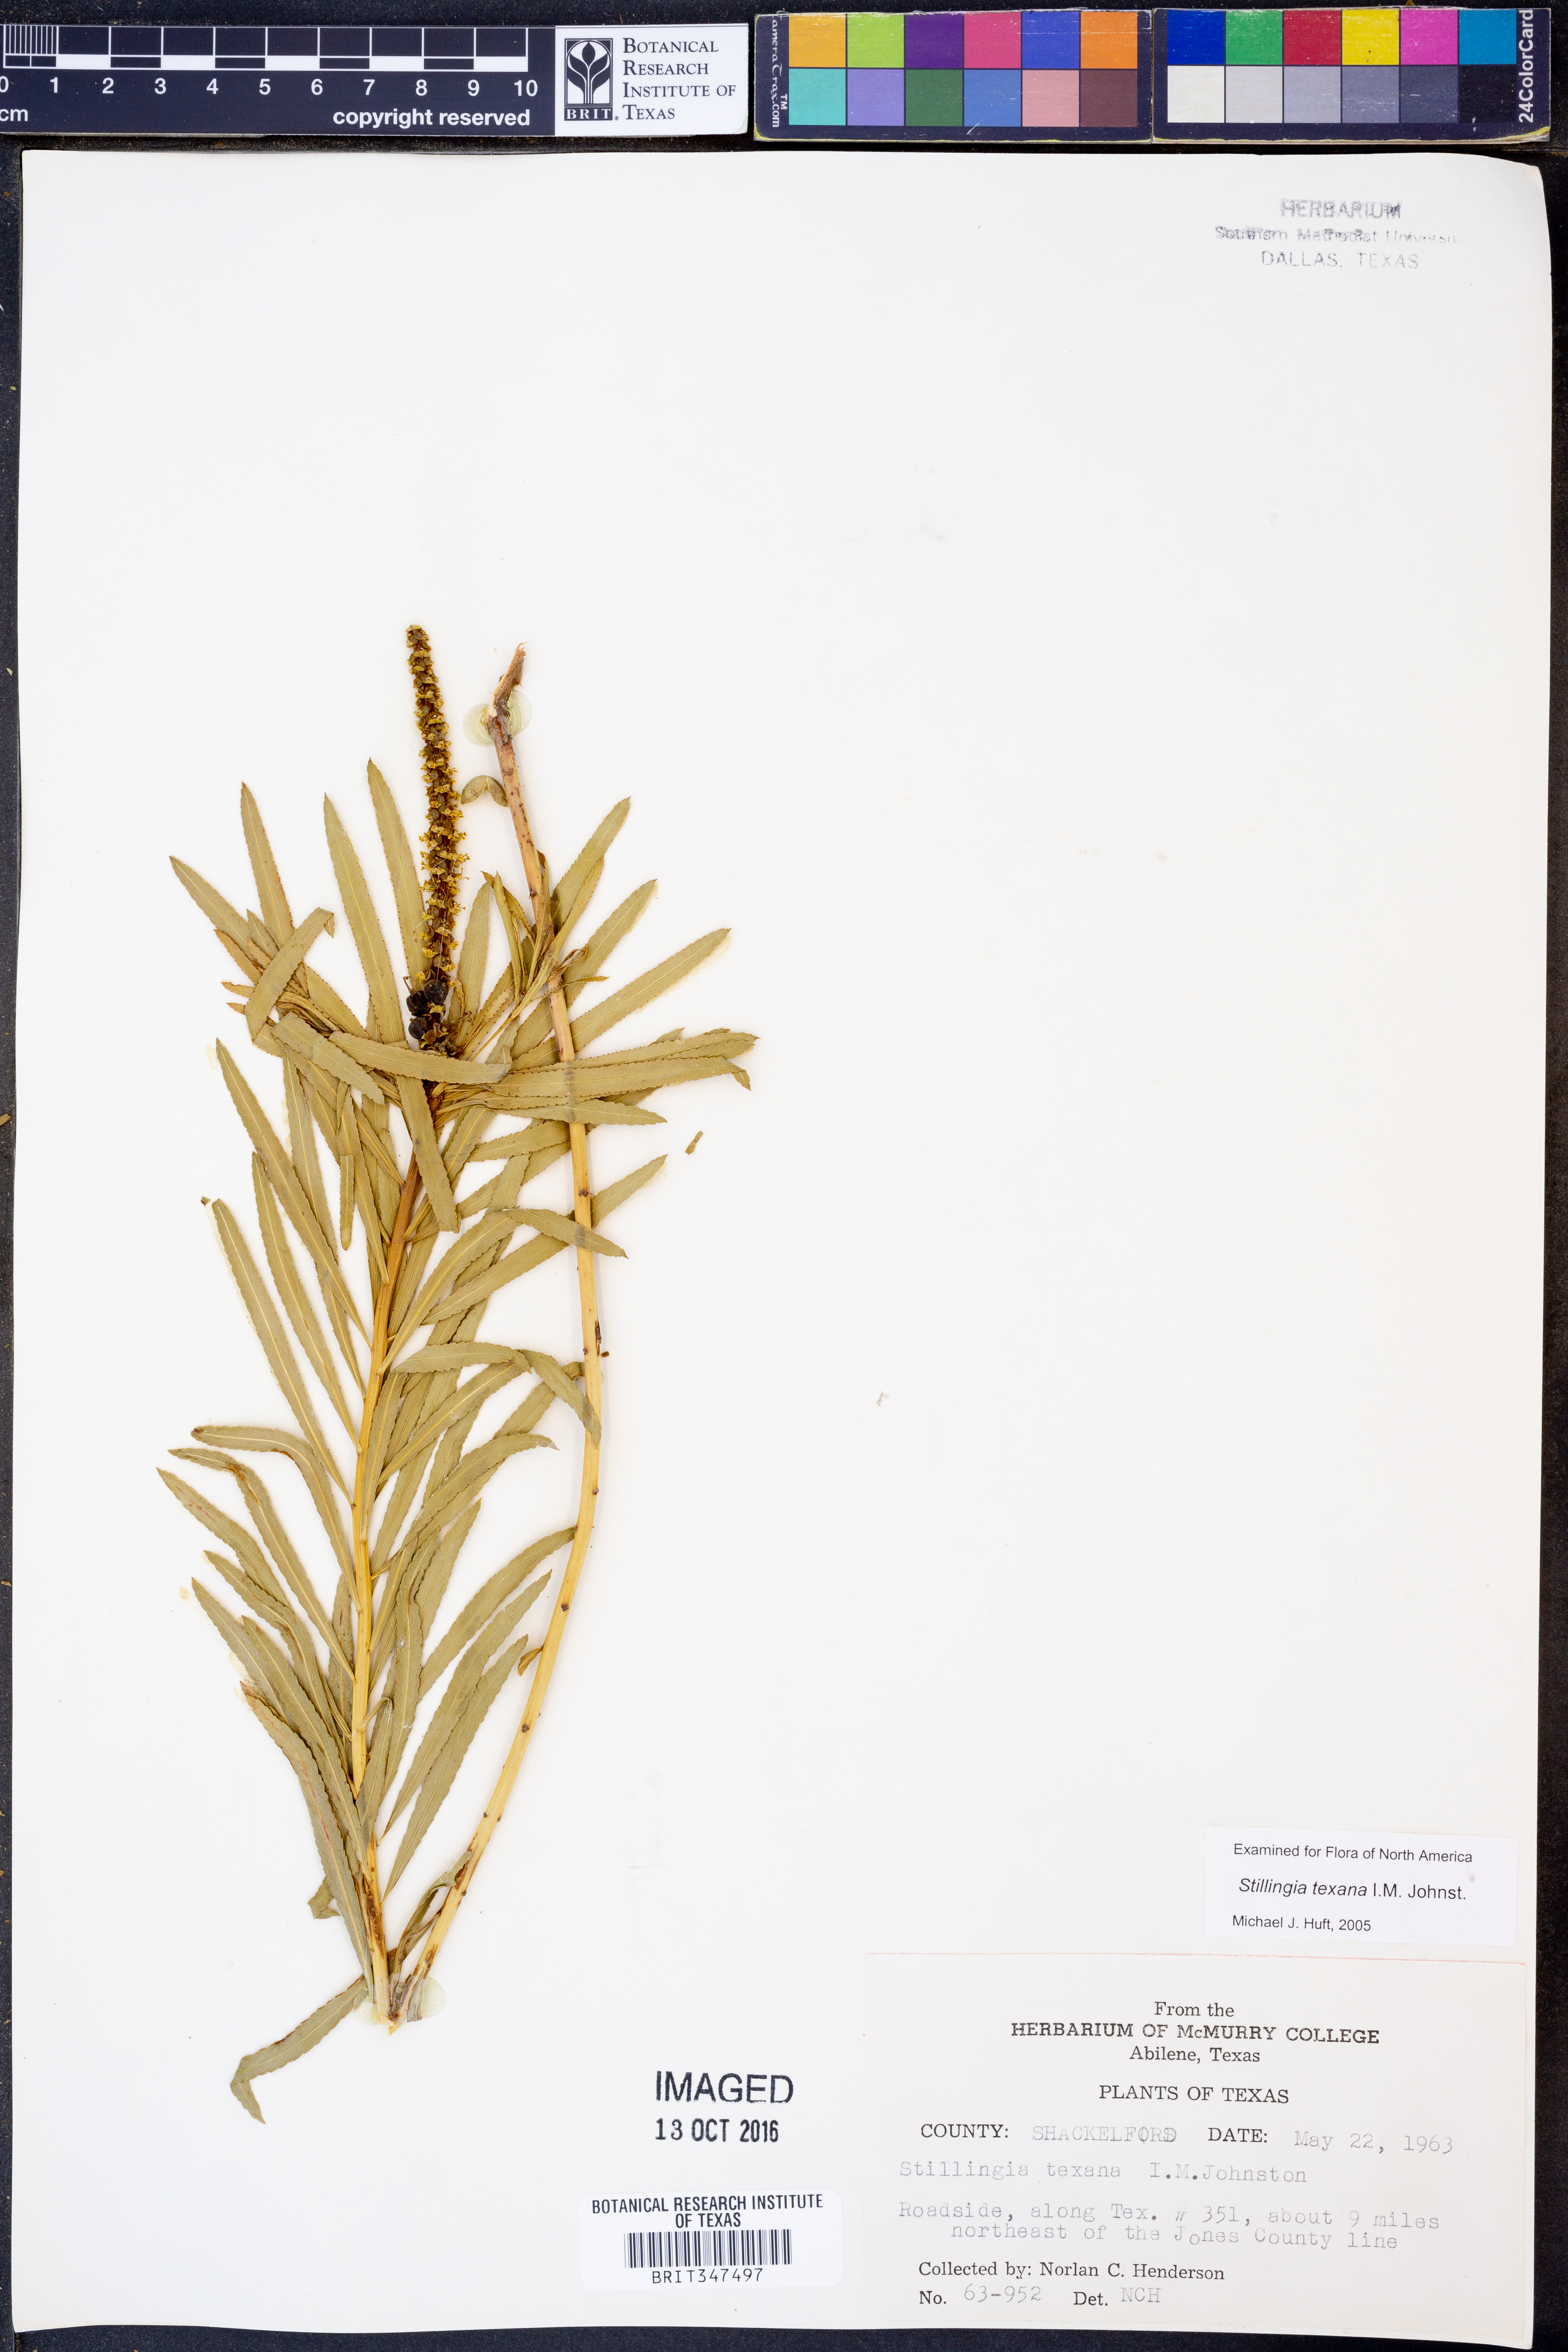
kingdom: Plantae
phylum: Tracheophyta
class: Magnoliopsida
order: Malpighiales
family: Euphorbiaceae
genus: Stillingia
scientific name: Stillingia texana
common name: Texas stillingia
